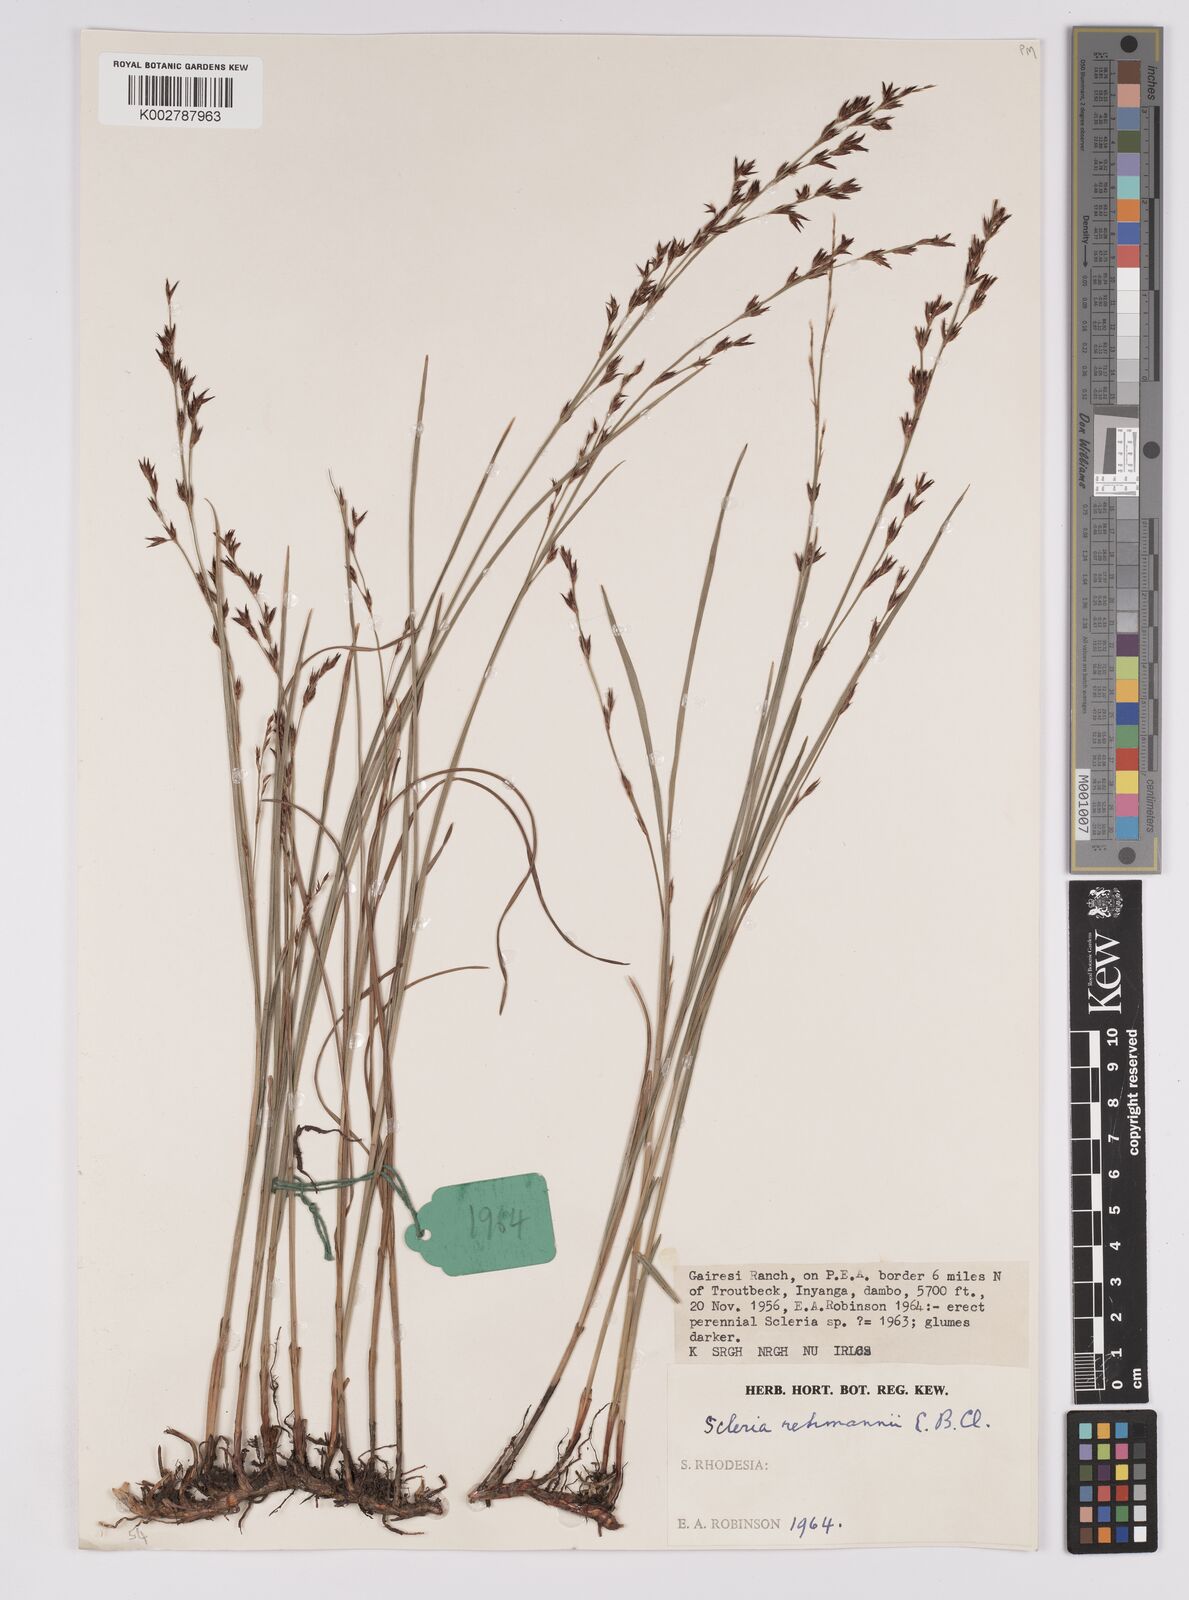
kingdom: Plantae
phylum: Tracheophyta
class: Liliopsida
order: Poales
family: Cyperaceae
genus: Scleria
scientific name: Scleria welwitschii
